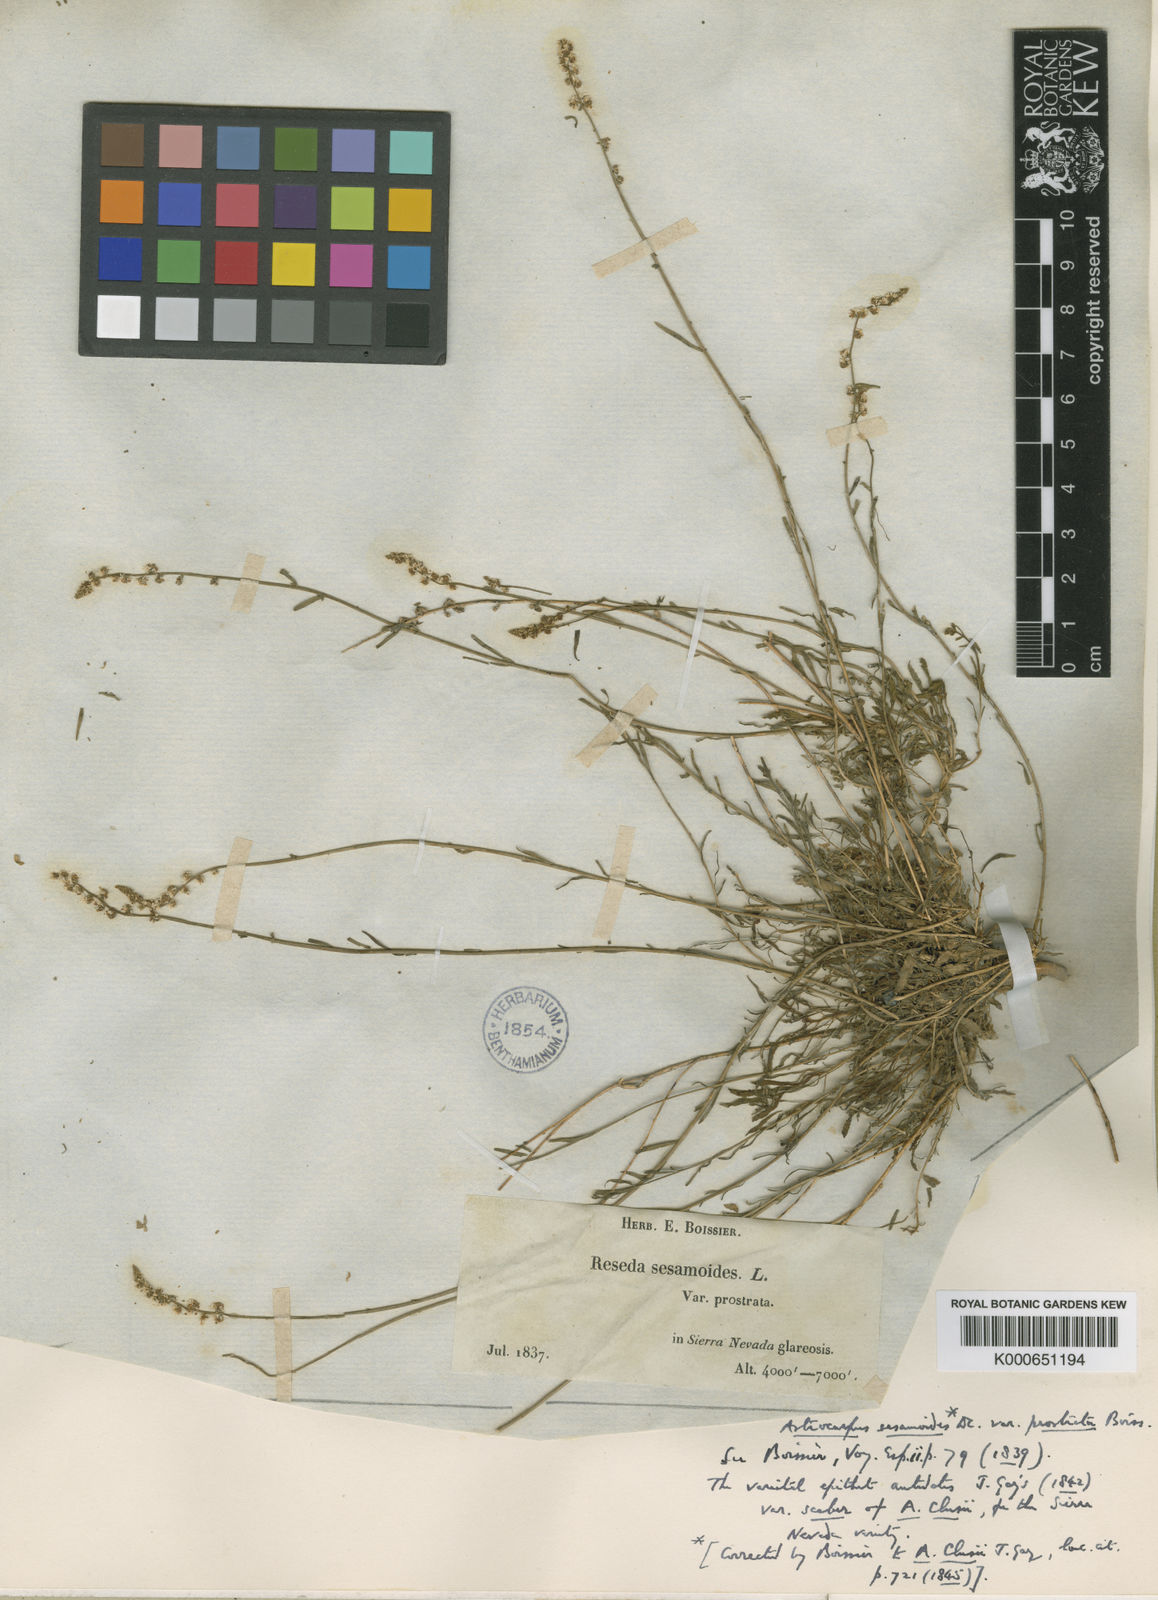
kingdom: Plantae
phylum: Tracheophyta
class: Magnoliopsida
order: Brassicales
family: Resedaceae
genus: Sesamoides
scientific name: Sesamoides
